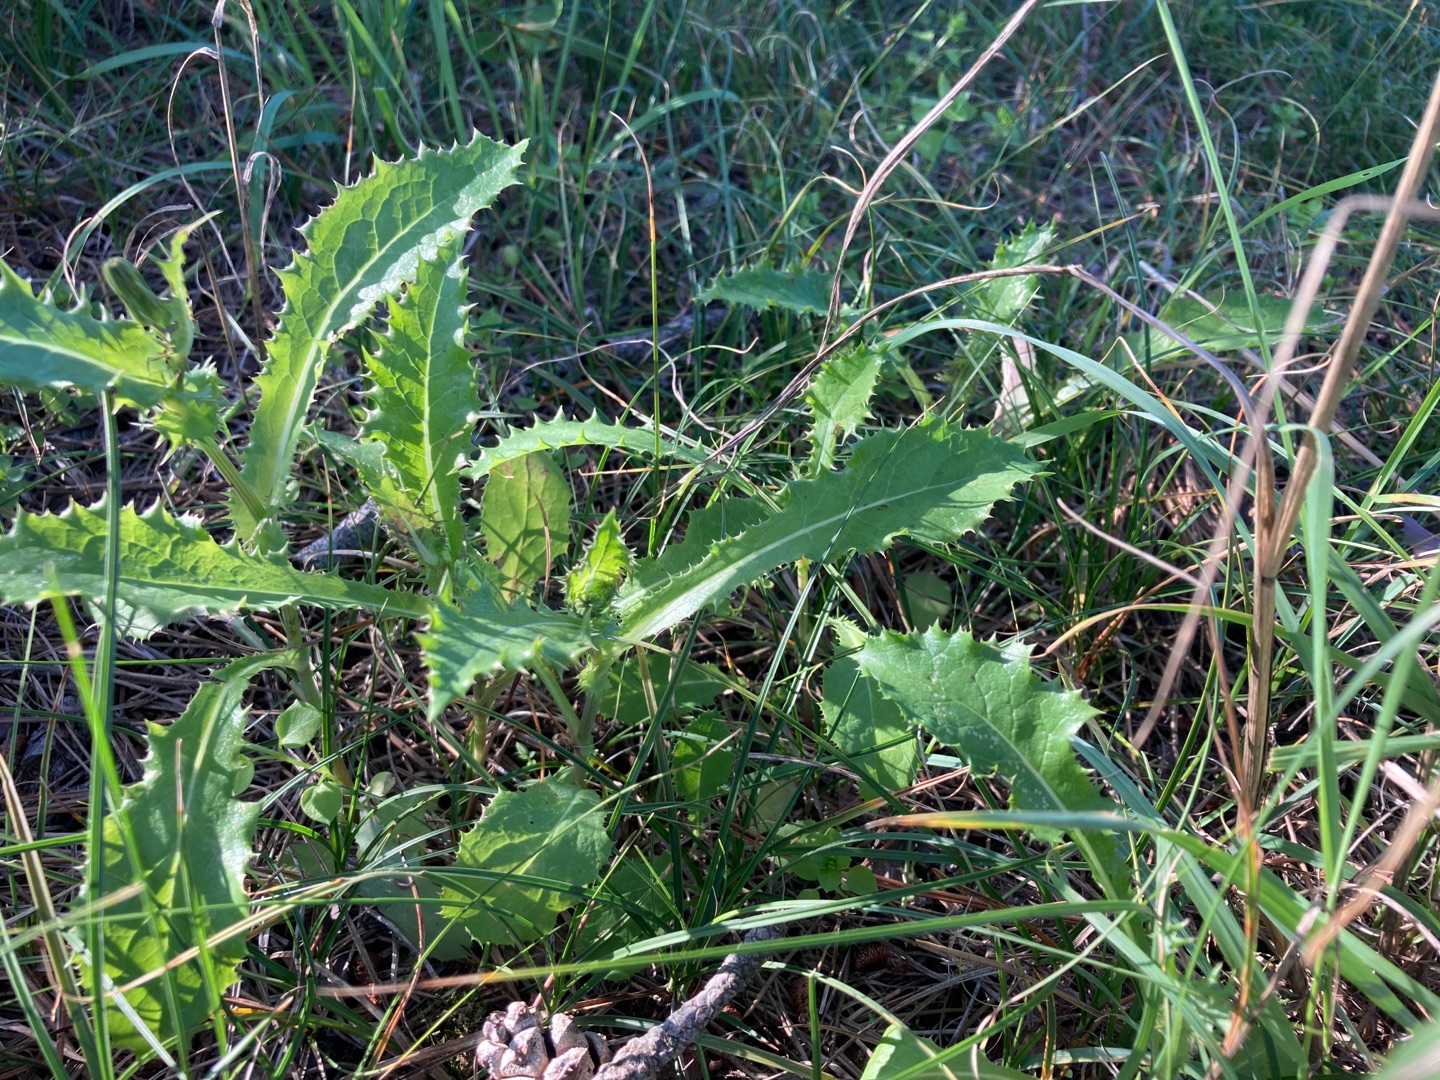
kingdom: Plantae
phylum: Tracheophyta
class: Magnoliopsida
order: Asterales
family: Asteraceae
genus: Sonchus
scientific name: Sonchus asper
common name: Ru svinemælk
